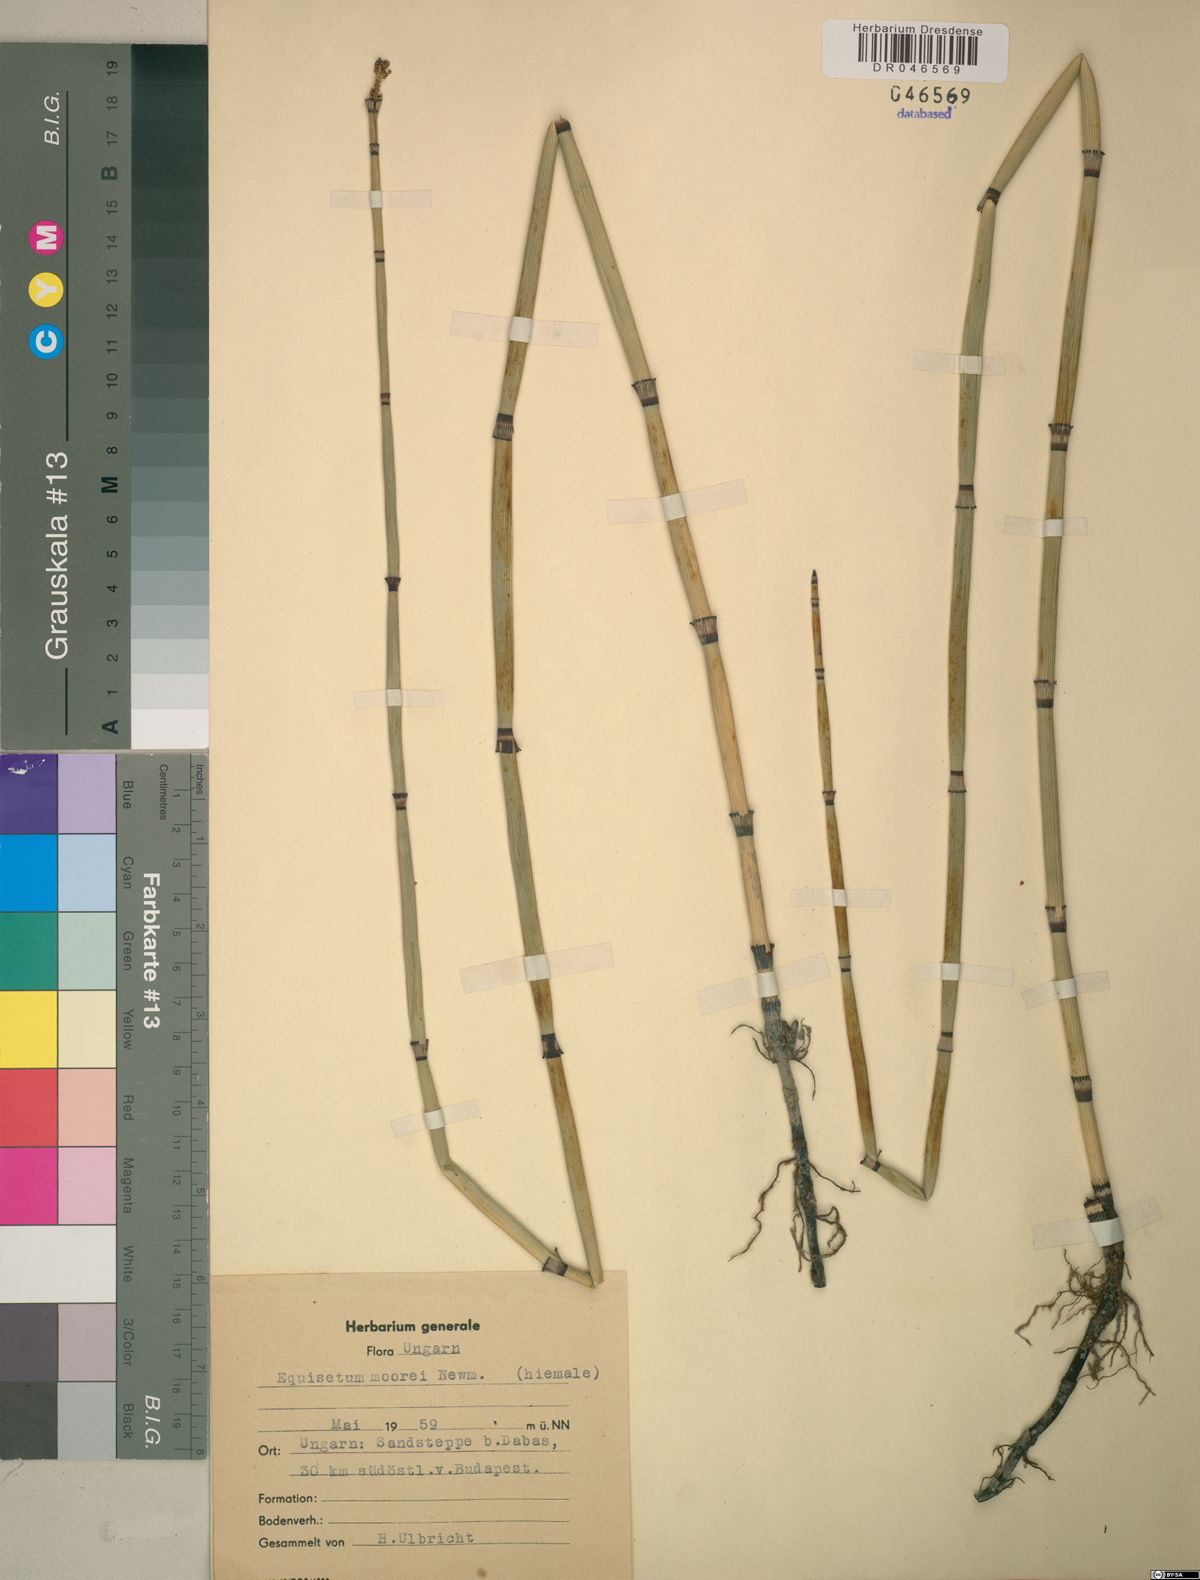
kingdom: Plantae
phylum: Tracheophyta
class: Polypodiopsida
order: Equisetales
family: Equisetaceae
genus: Equisetum
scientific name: Equisetum moorei
